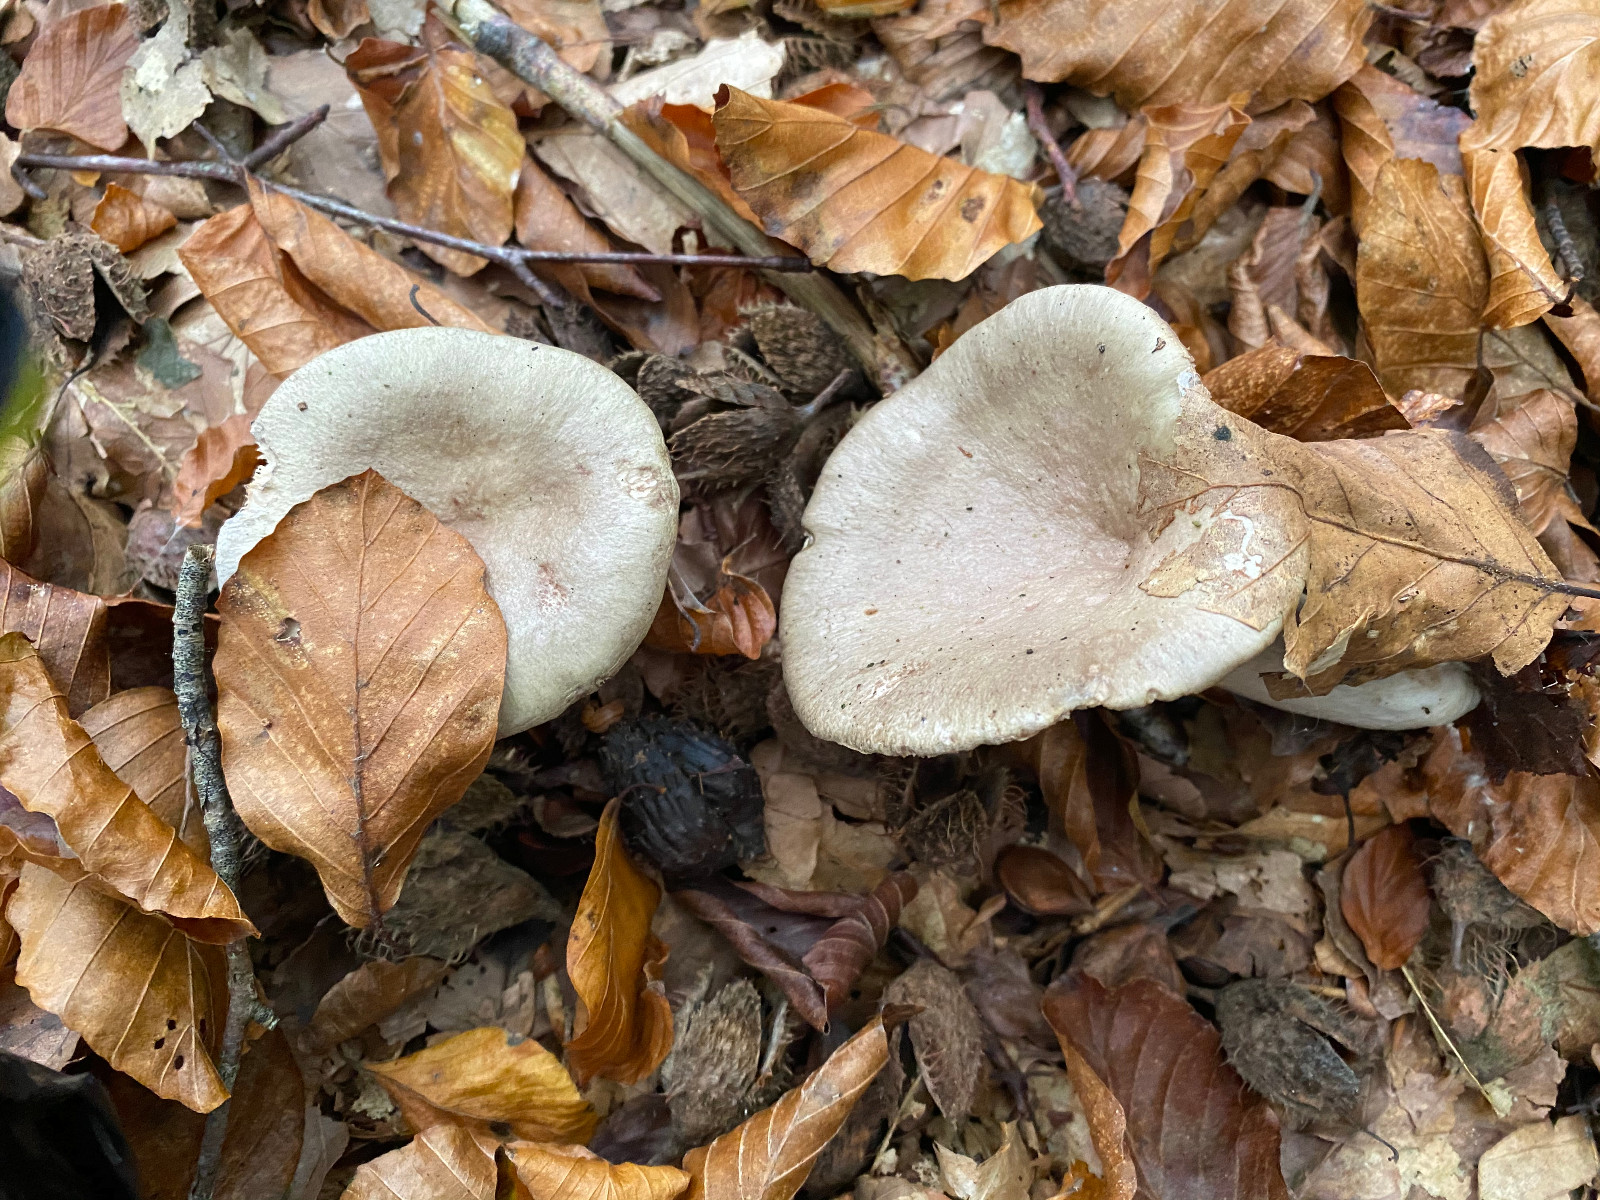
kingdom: Fungi
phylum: Basidiomycota
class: Agaricomycetes
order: Russulales
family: Russulaceae
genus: Lactarius
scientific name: Lactarius blennius
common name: dråbeplettet mælkehat
